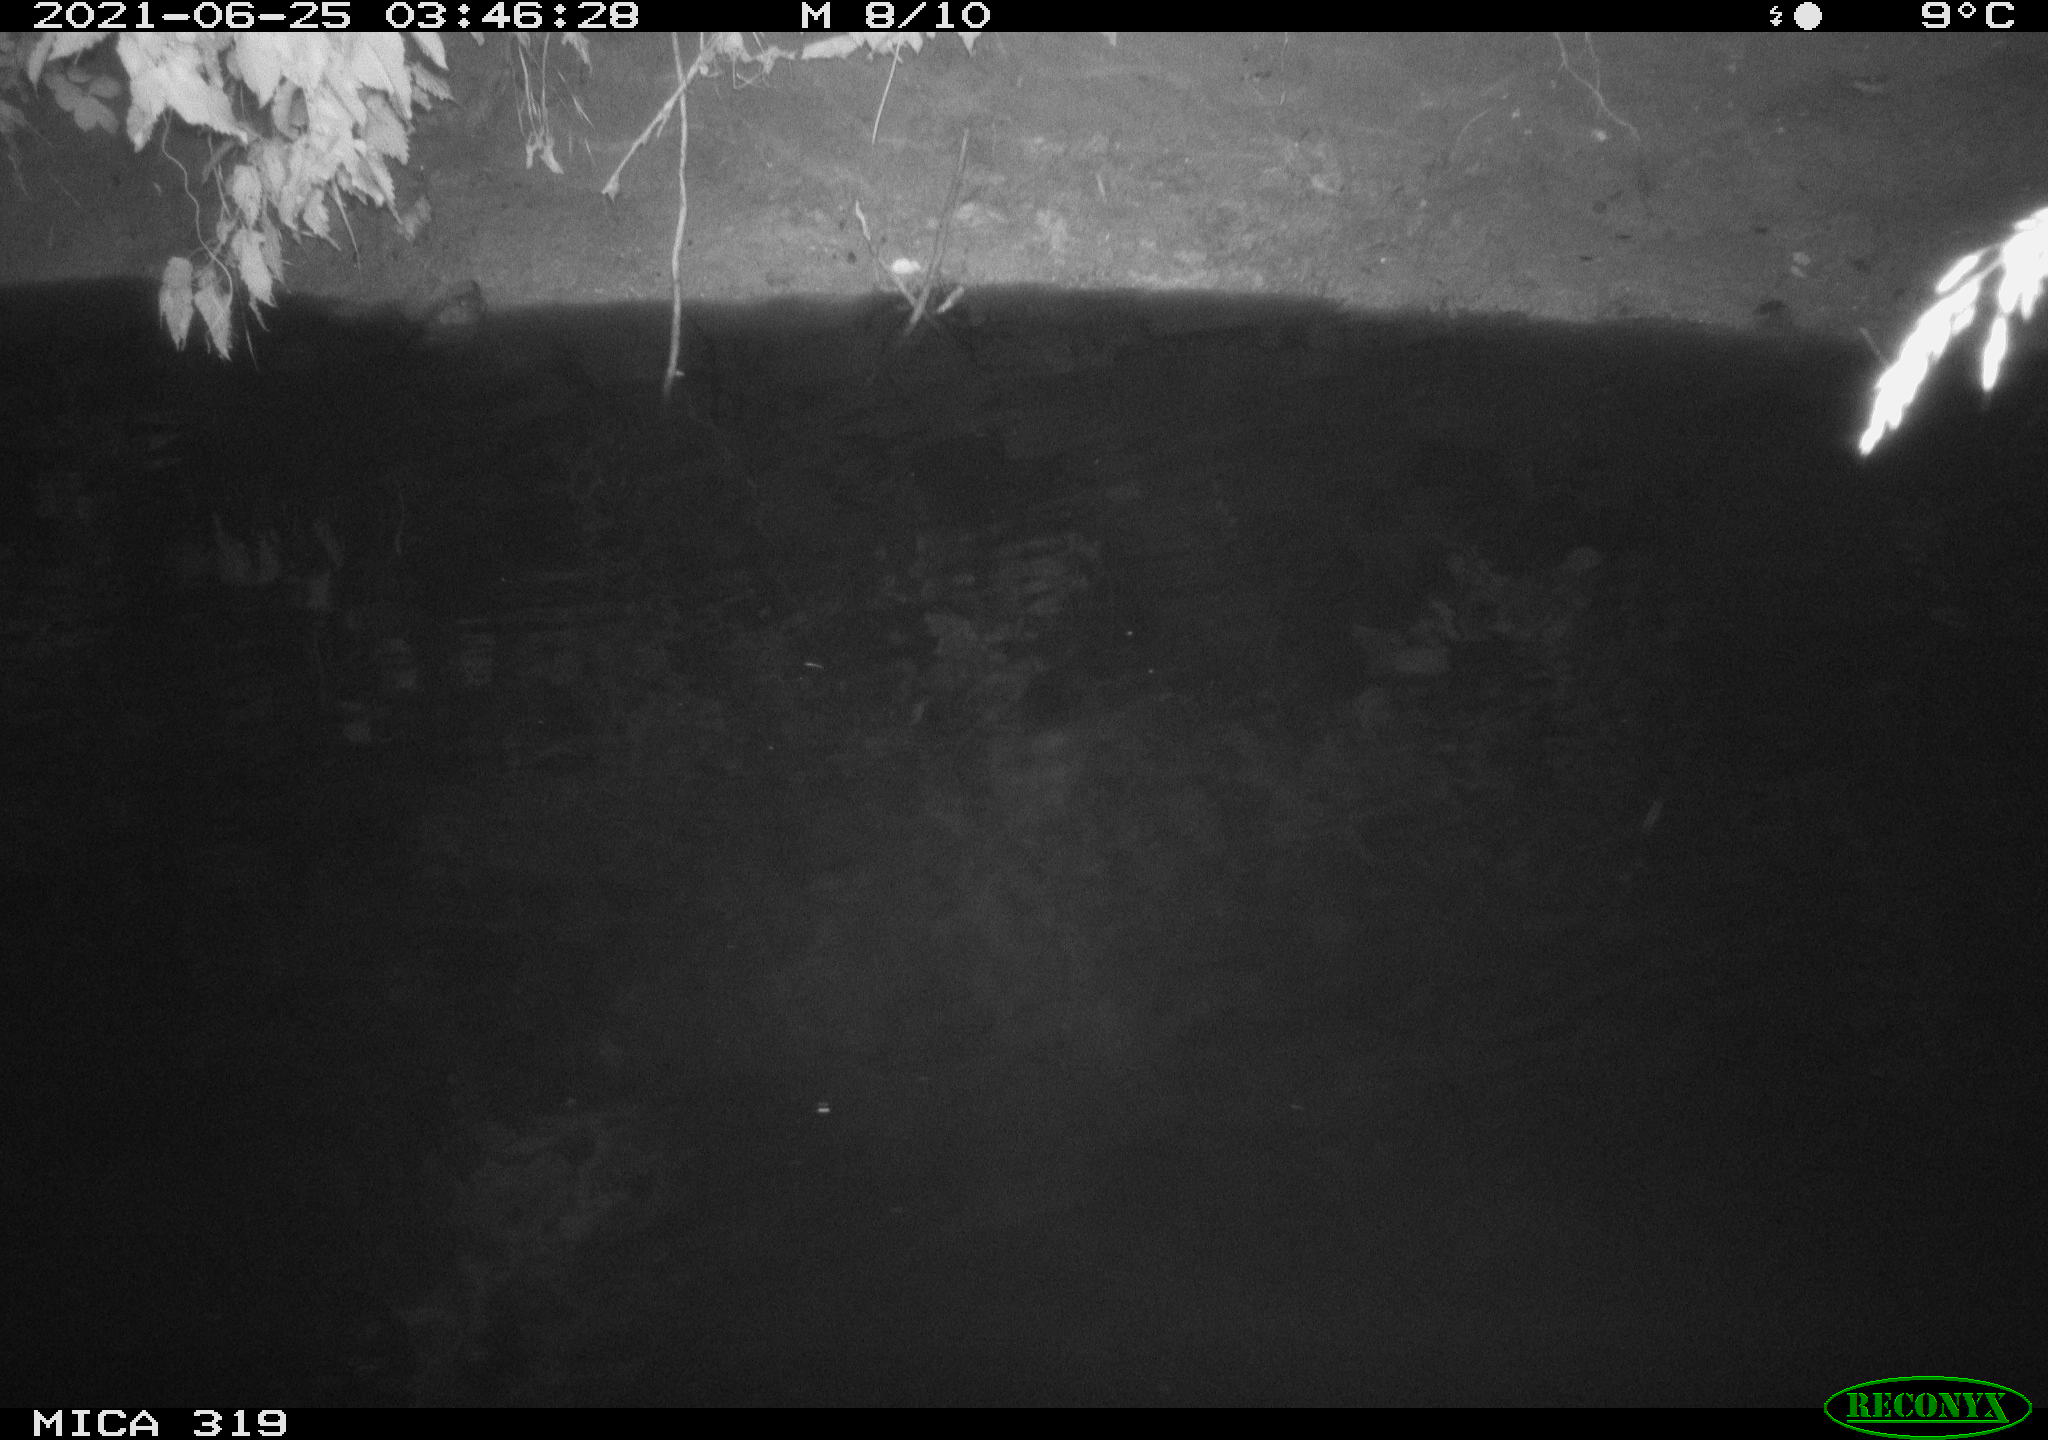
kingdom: Animalia
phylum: Chordata
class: Aves
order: Anseriformes
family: Anatidae
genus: Anas
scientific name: Anas platyrhynchos
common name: Mallard
